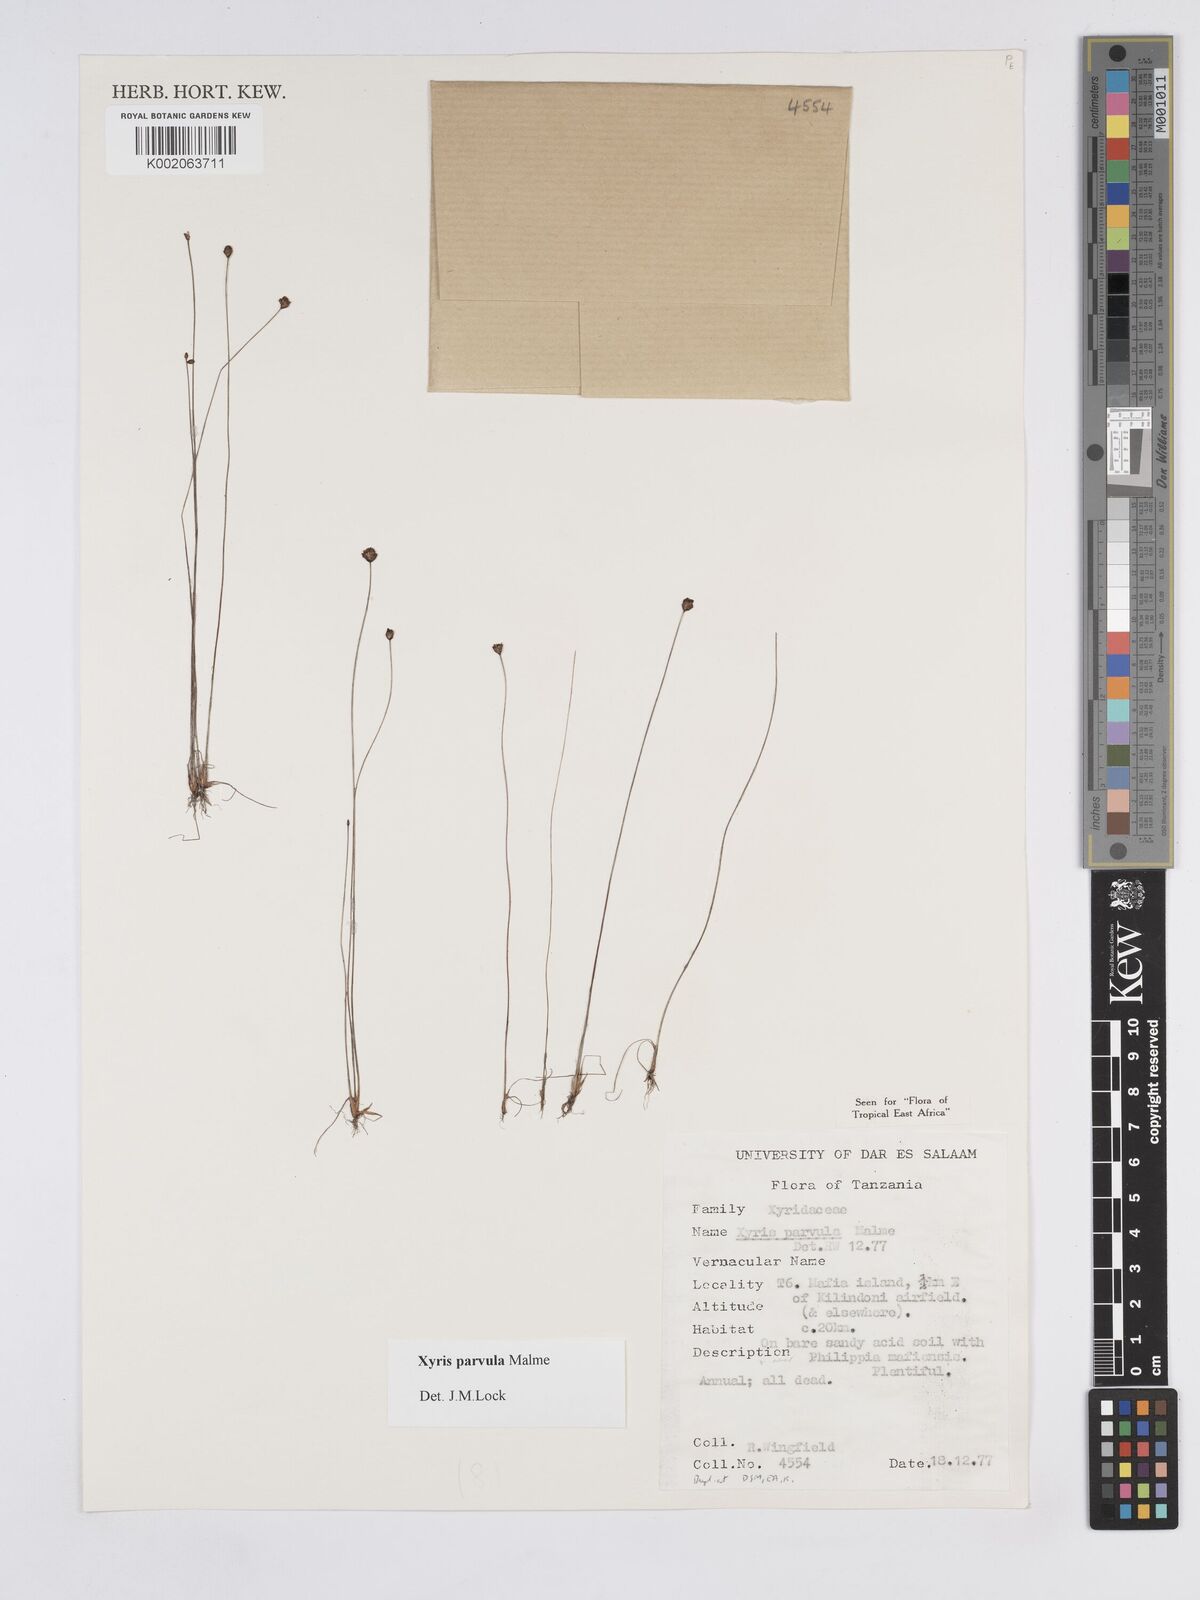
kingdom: Plantae
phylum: Tracheophyta
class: Liliopsida
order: Poales
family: Xyridaceae
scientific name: Xyridaceae
